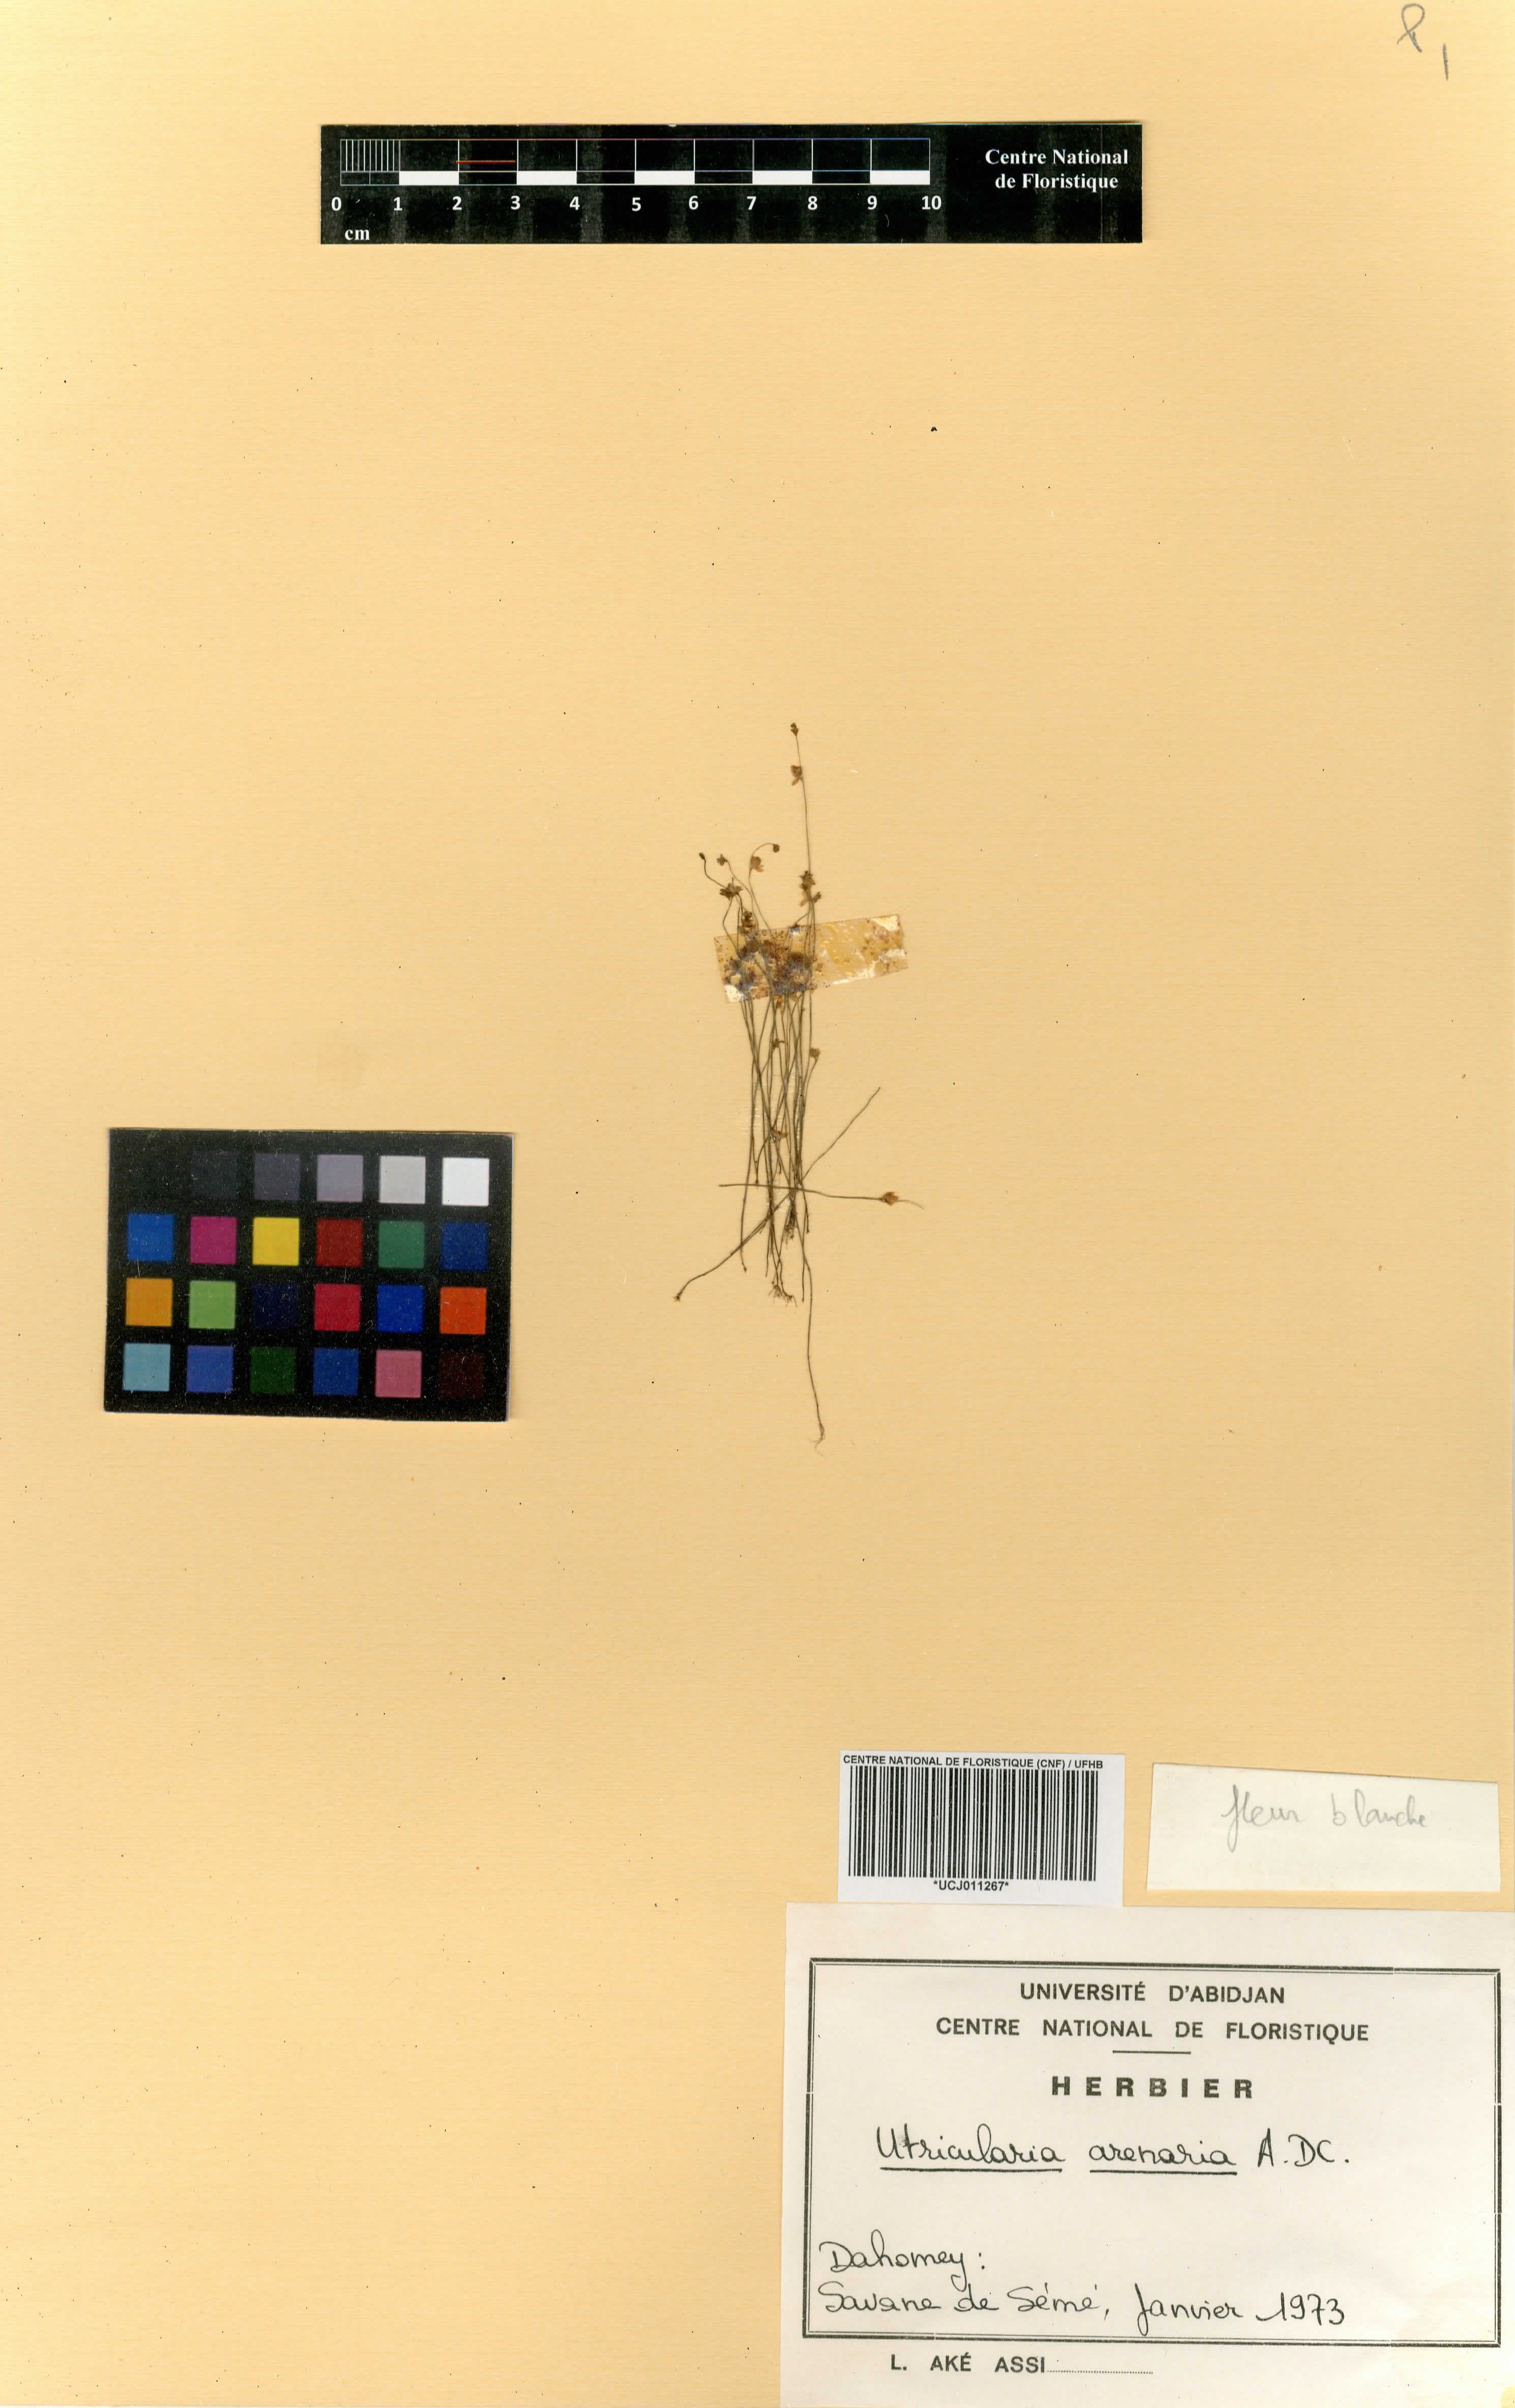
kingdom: Plantae
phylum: Tracheophyta
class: Magnoliopsida
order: Lamiales
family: Lentibulariaceae
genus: Utricularia
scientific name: Utricularia benjaminiana
